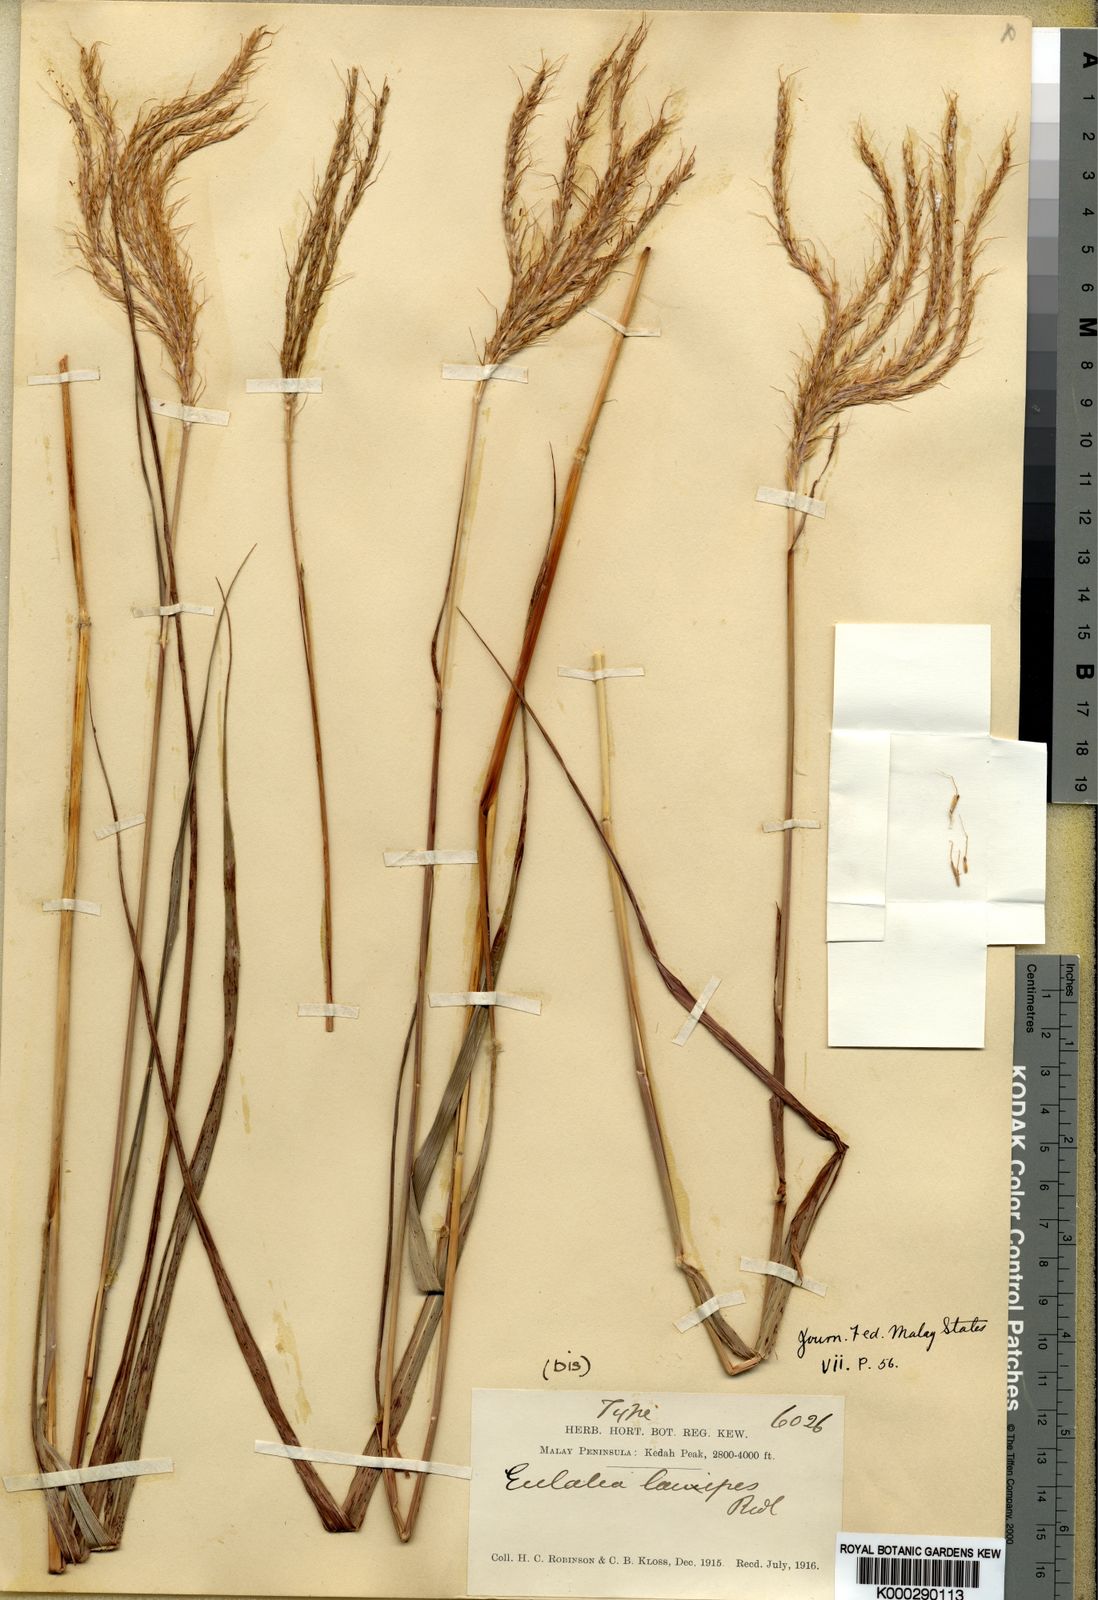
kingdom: Plantae
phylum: Tracheophyta
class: Liliopsida
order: Poales
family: Poaceae
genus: Pseudopogonatherum
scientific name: Pseudopogonatherum speciosum
